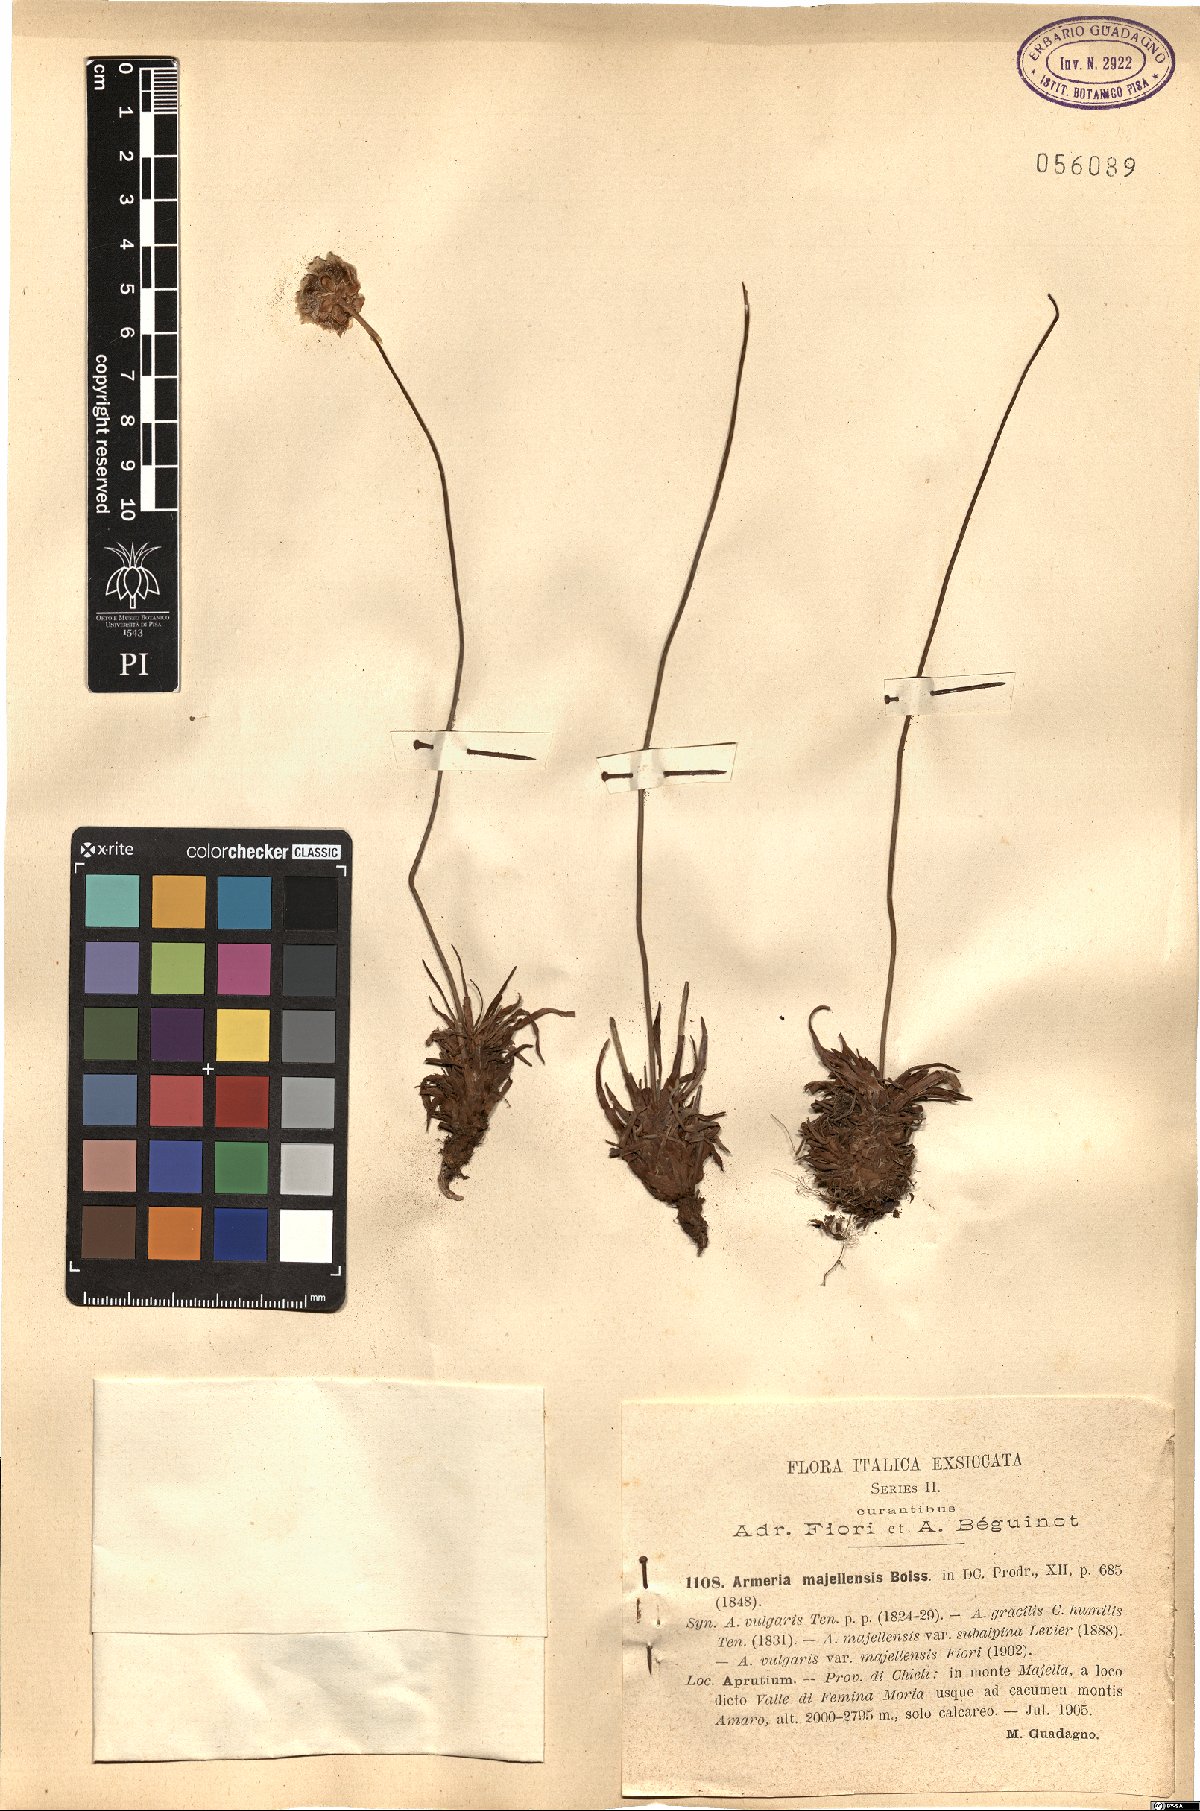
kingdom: Plantae
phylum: Tracheophyta
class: Magnoliopsida
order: Caryophyllales
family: Plumbaginaceae
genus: Armeria
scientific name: Armeria nebrodensis
